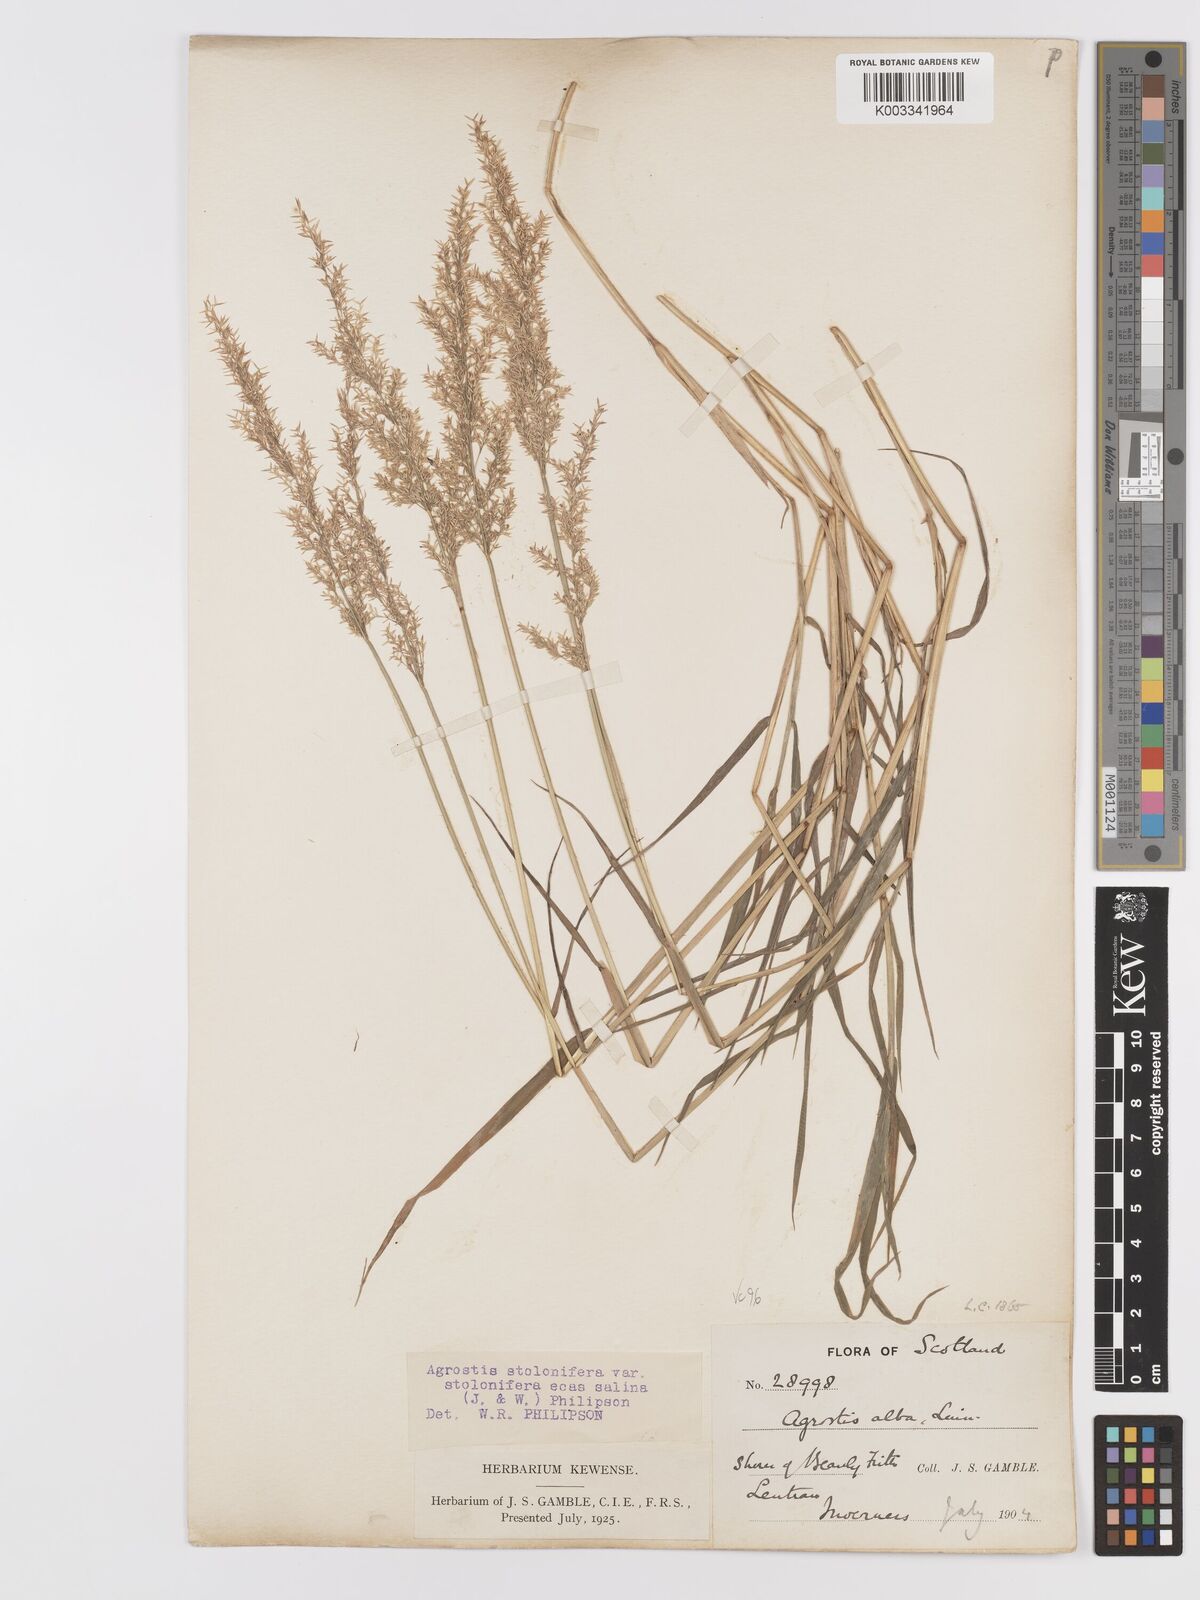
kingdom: Plantae
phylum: Tracheophyta
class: Liliopsida
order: Poales
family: Poaceae
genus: Agrostis
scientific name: Agrostis stolonifera
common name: Creeping bentgrass
